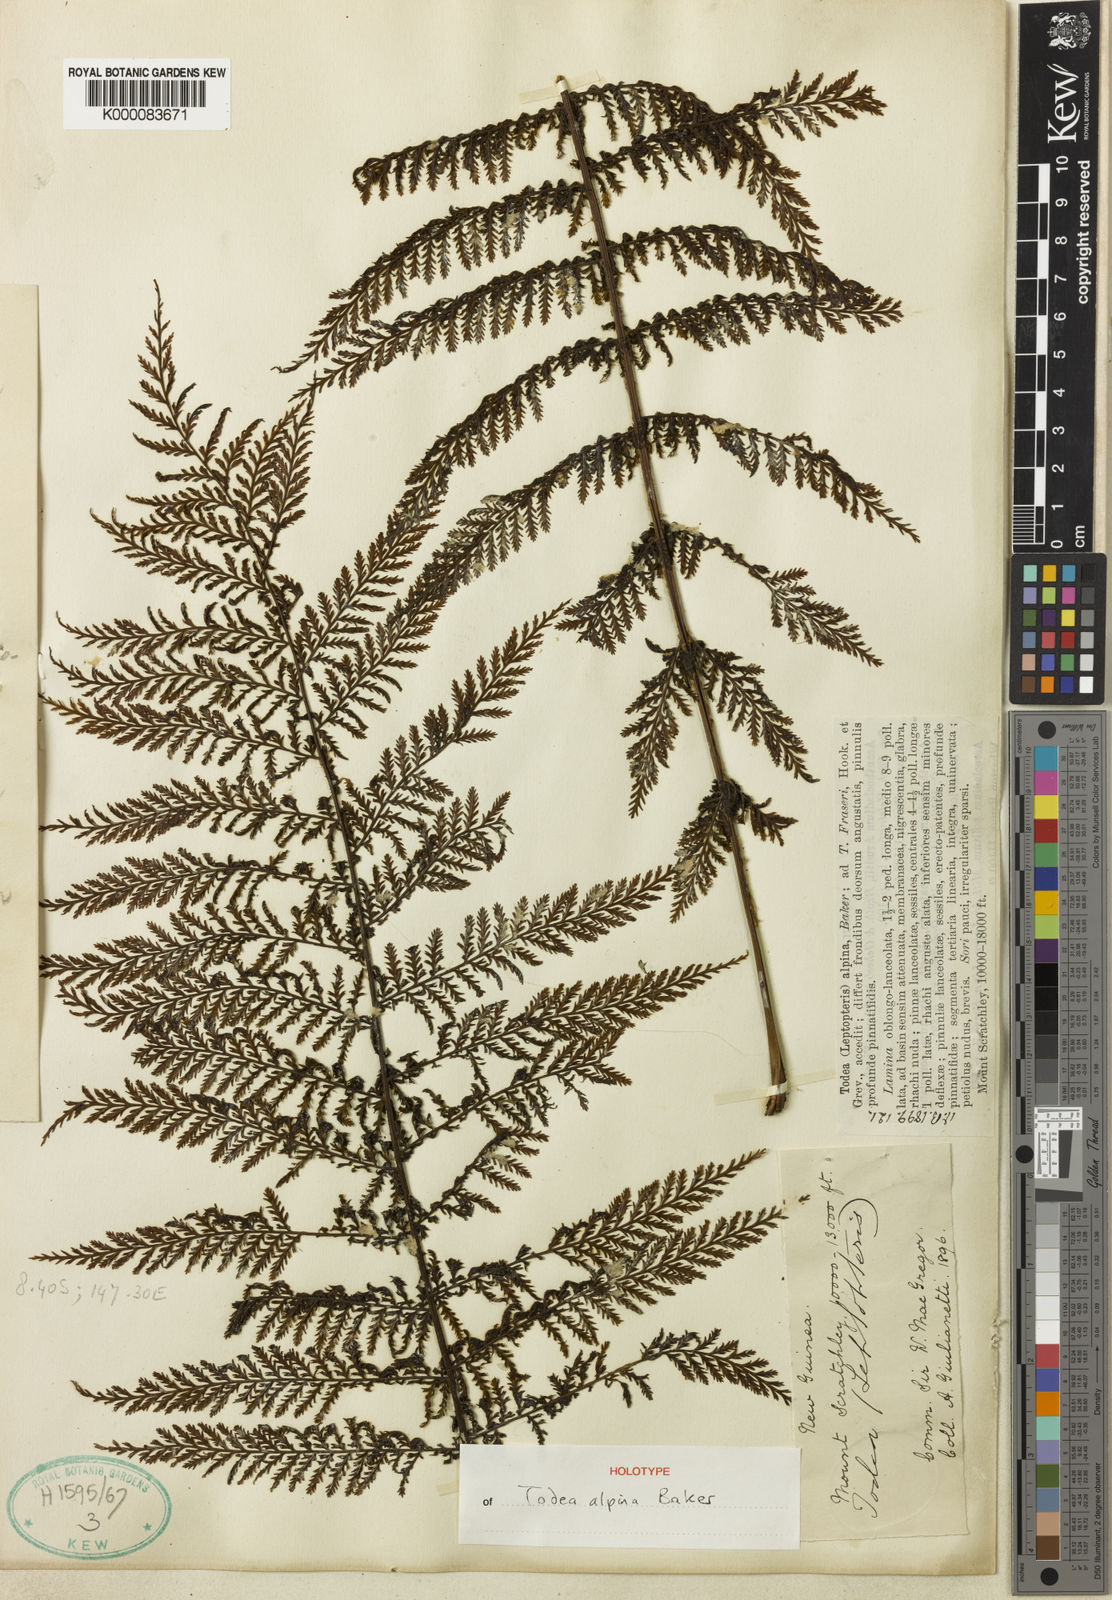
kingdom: Plantae
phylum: Tracheophyta
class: Polypodiopsida
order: Osmundales
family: Osmundaceae
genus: Leptopteris
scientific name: Leptopteris alpina
